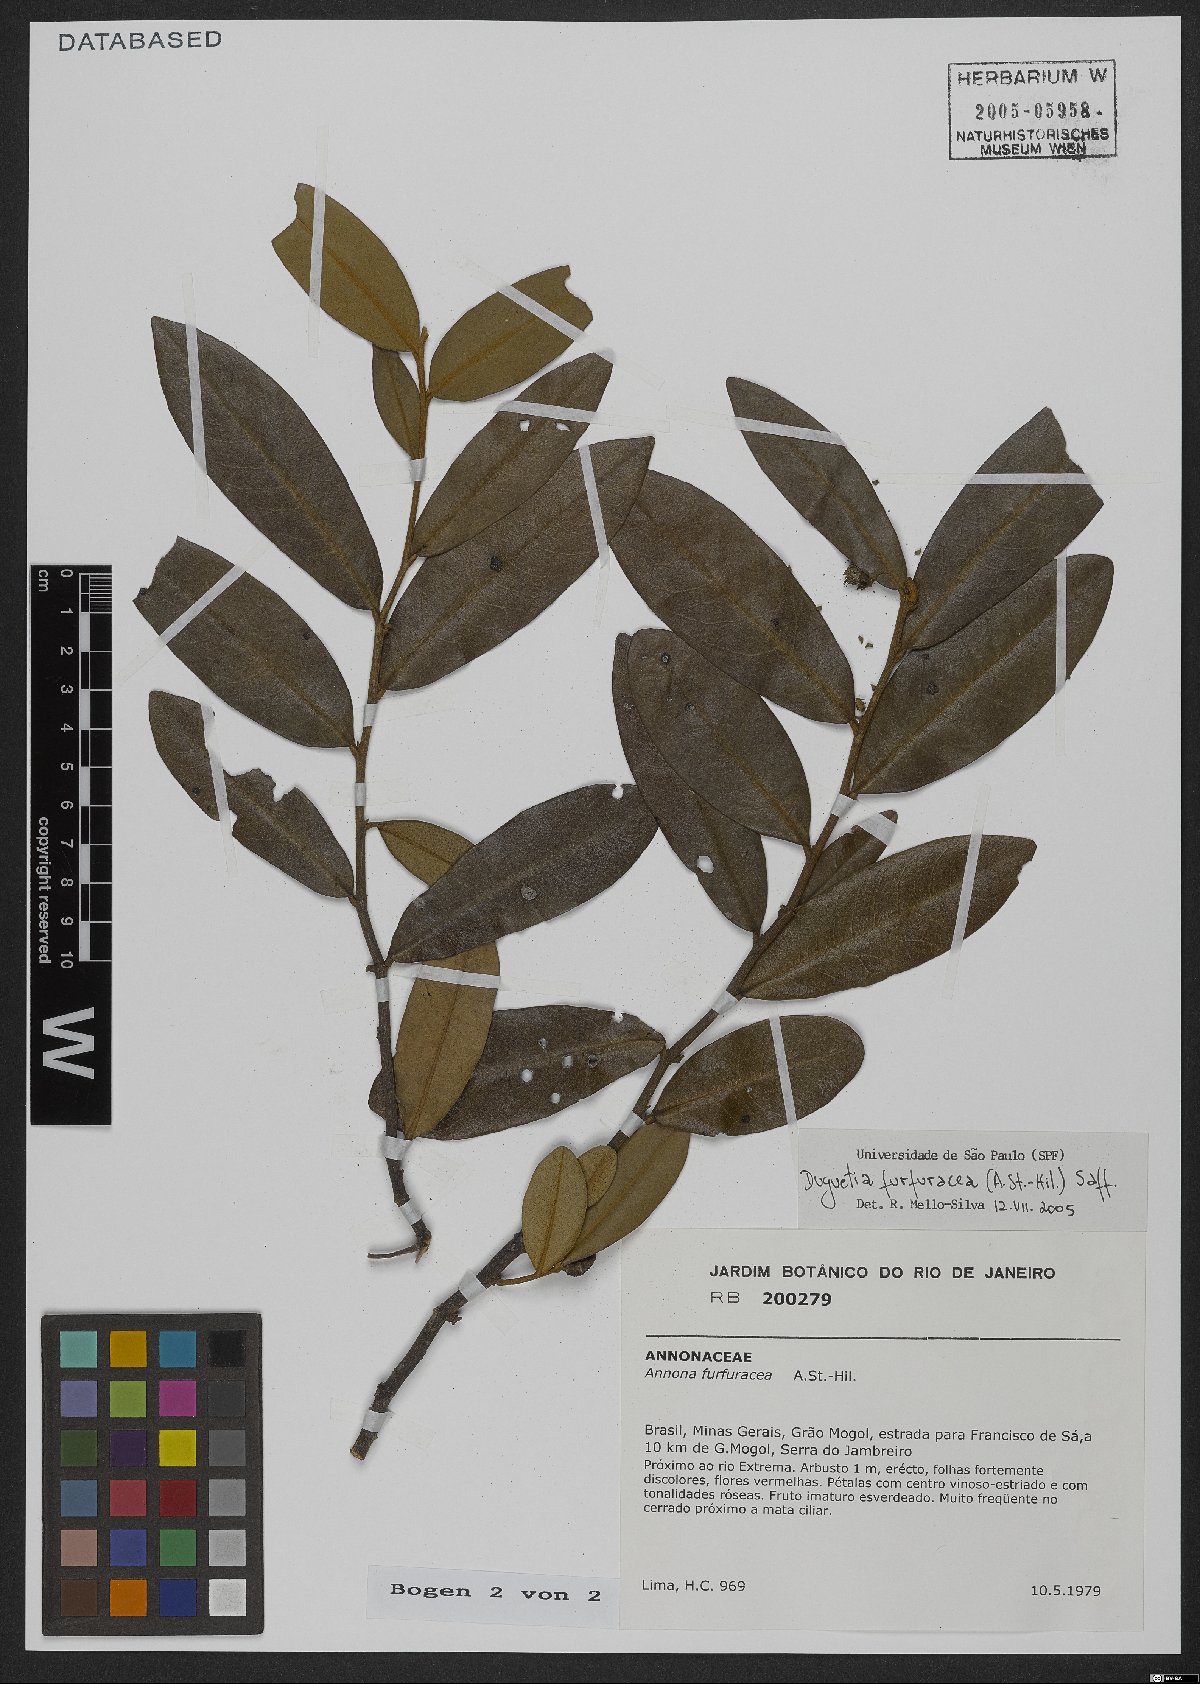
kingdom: Plantae
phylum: Tracheophyta
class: Magnoliopsida
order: Magnoliales
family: Annonaceae
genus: Duguetia
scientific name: Duguetia furfuracea
